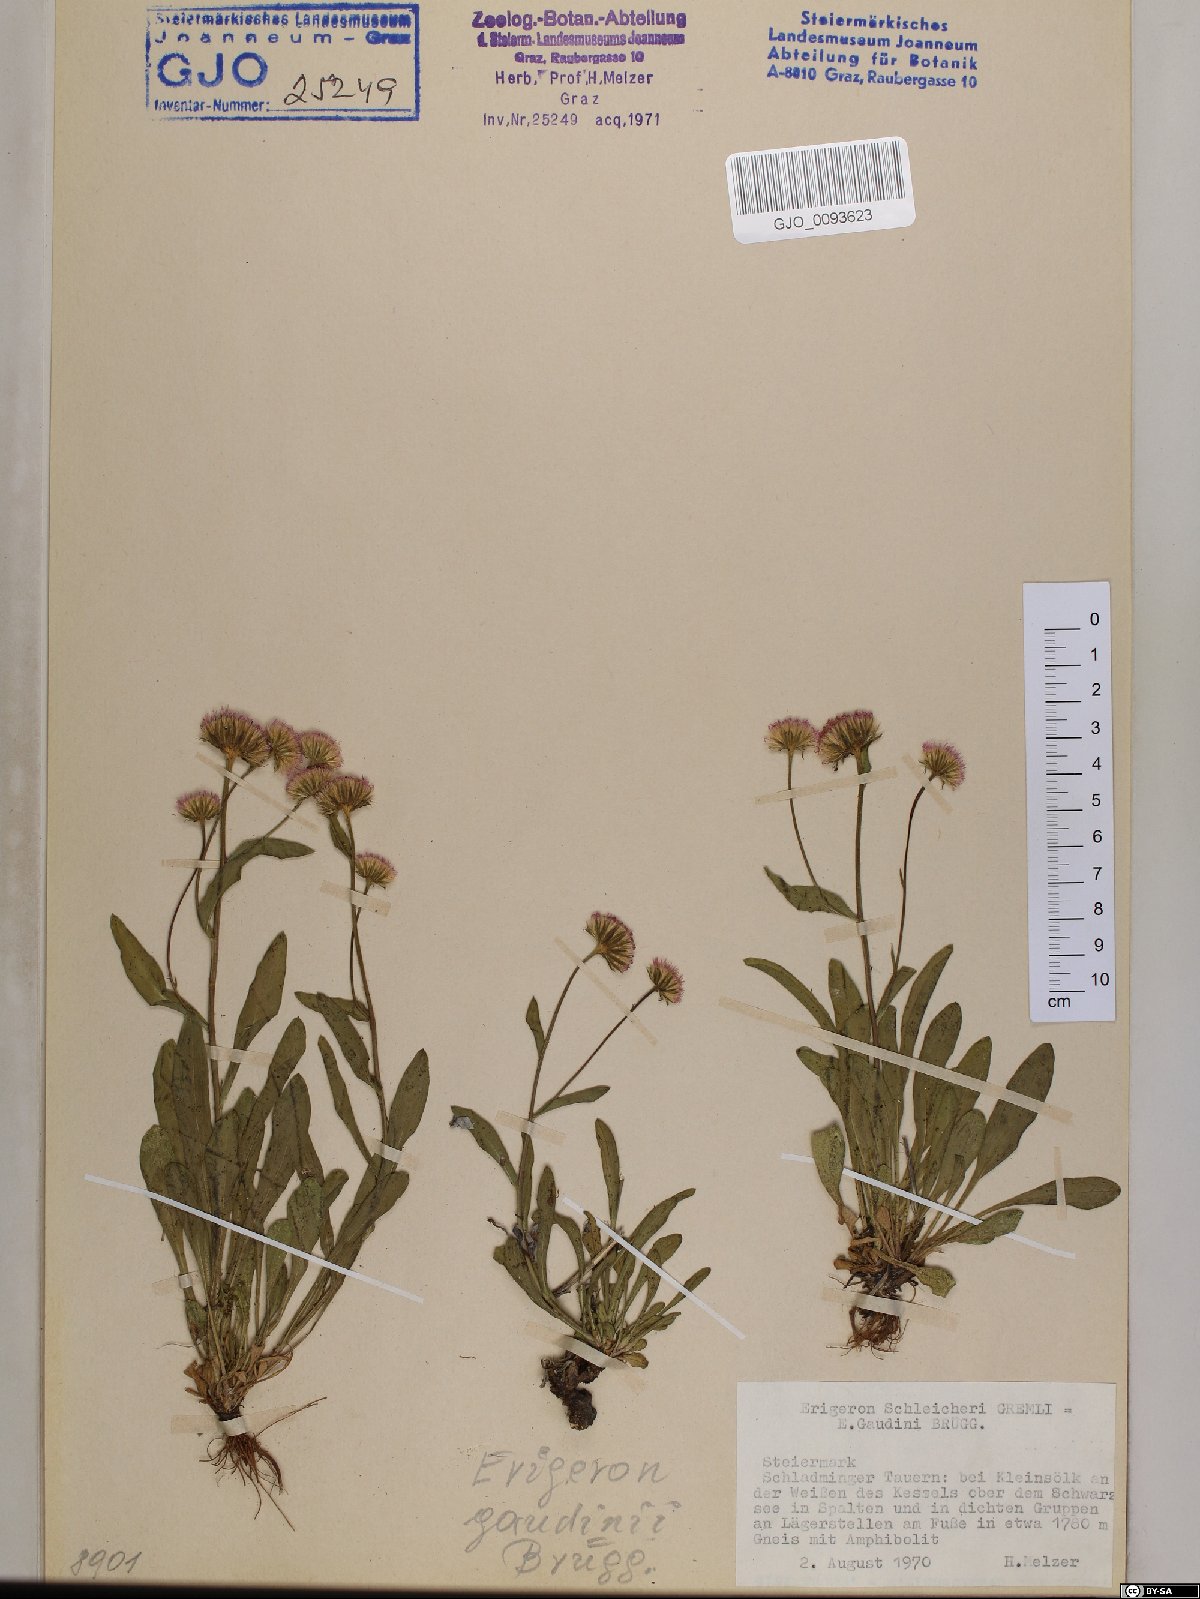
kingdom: Plantae
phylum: Tracheophyta
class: Magnoliopsida
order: Asterales
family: Asteraceae
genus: Erigeron
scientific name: Erigeron schleicheri
